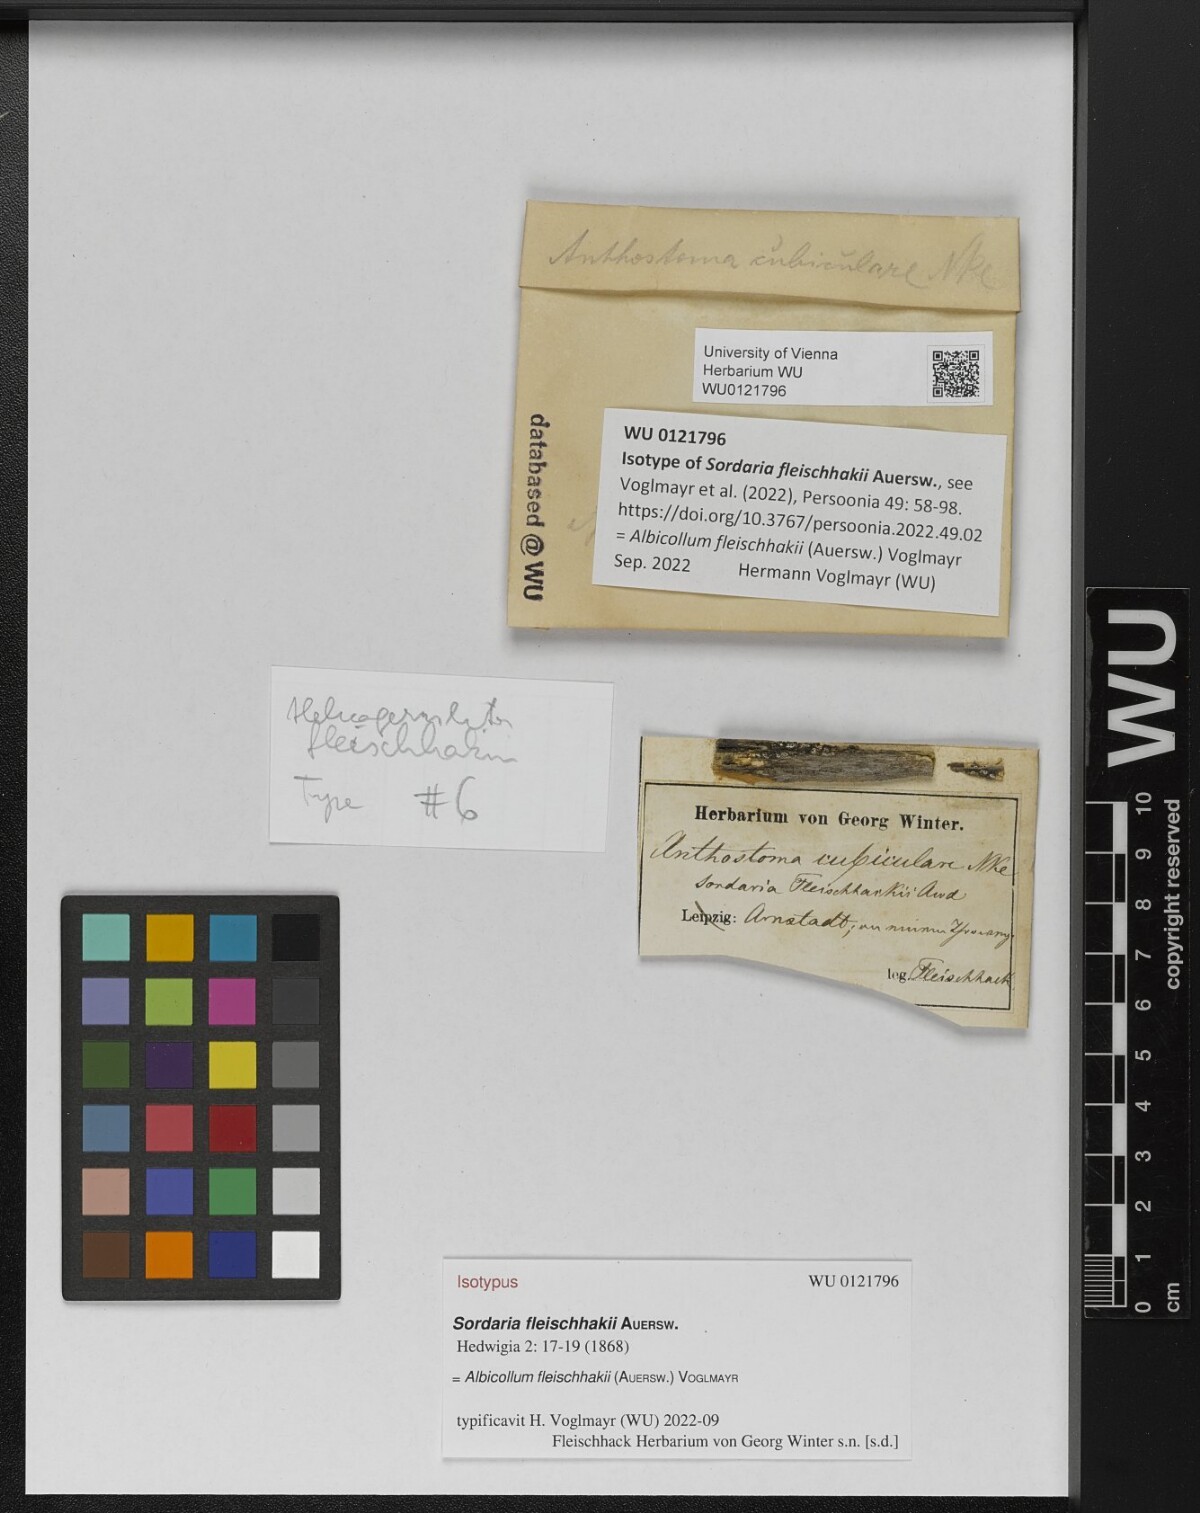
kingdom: Fungi
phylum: Ascomycota
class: Sordariomycetes
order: Xylariales
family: Xylariaceae
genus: Albicollum
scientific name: Albicollum fleischhakii
